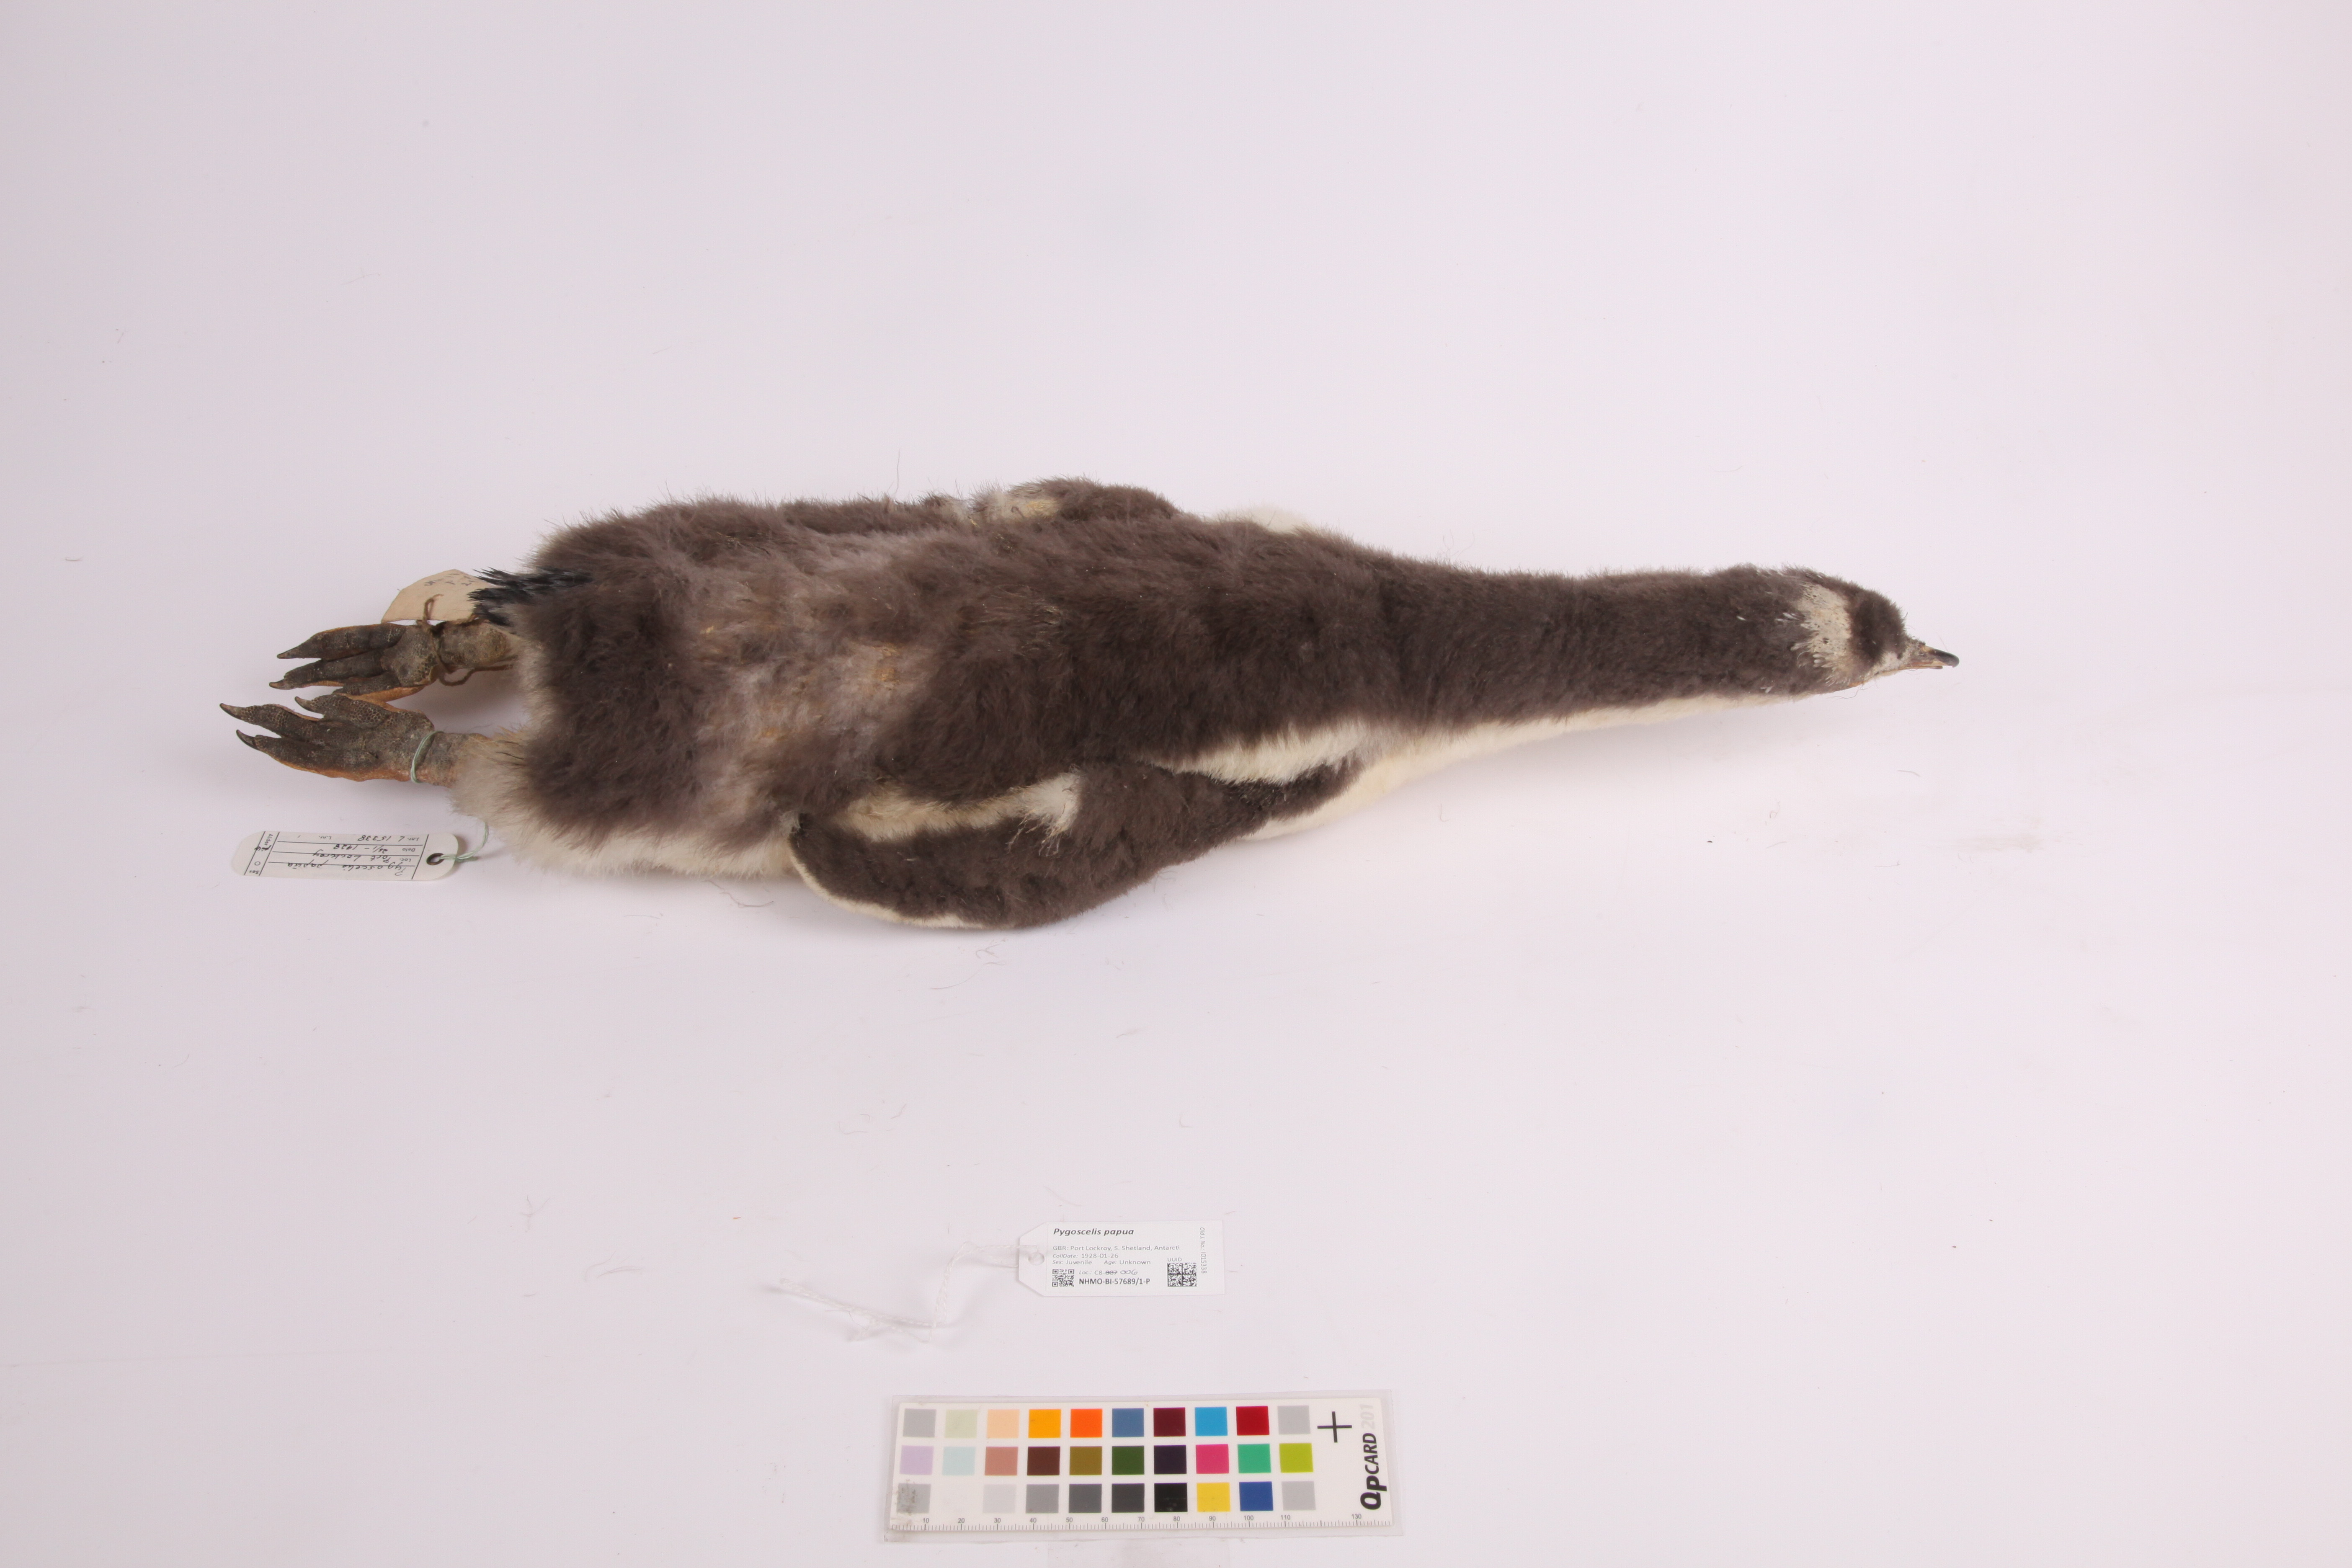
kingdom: Animalia
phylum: Chordata
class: Aves
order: Sphenisciformes
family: Spheniscidae
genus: Pygoscelis
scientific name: Pygoscelis papua
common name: Gentoo penguin
